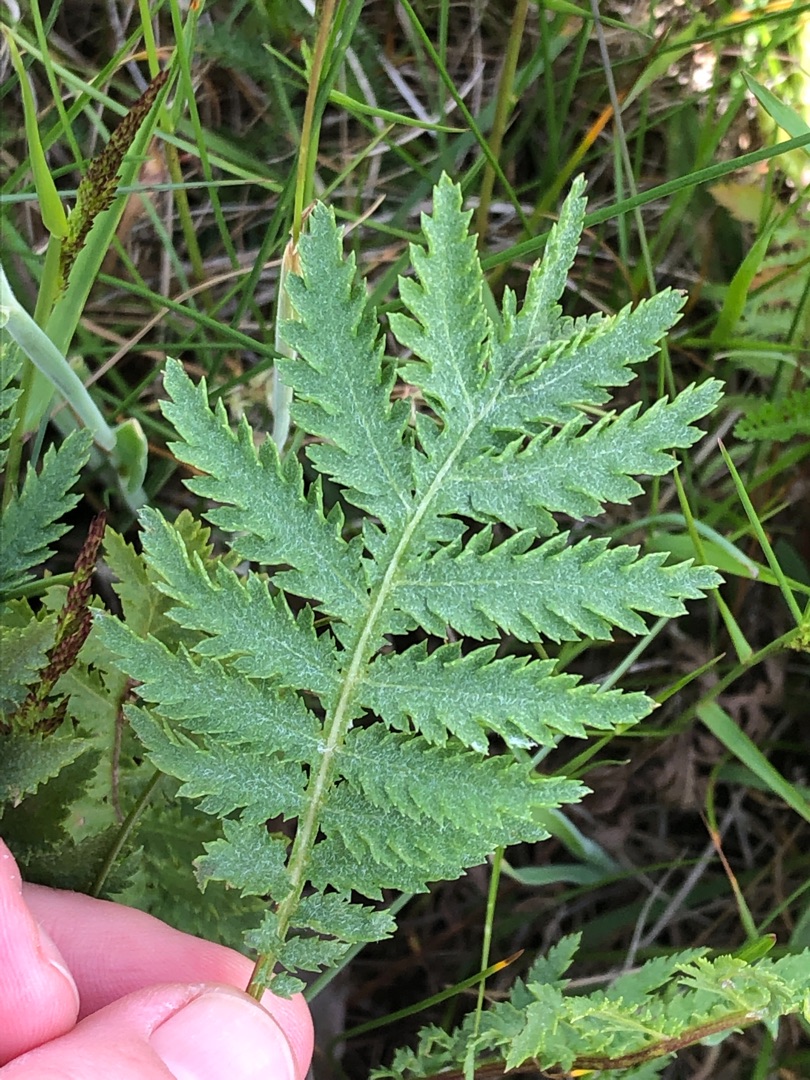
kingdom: Plantae
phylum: Tracheophyta
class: Magnoliopsida
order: Asterales
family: Asteraceae
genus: Tanacetum
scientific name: Tanacetum vulgare
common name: Rejnfan
